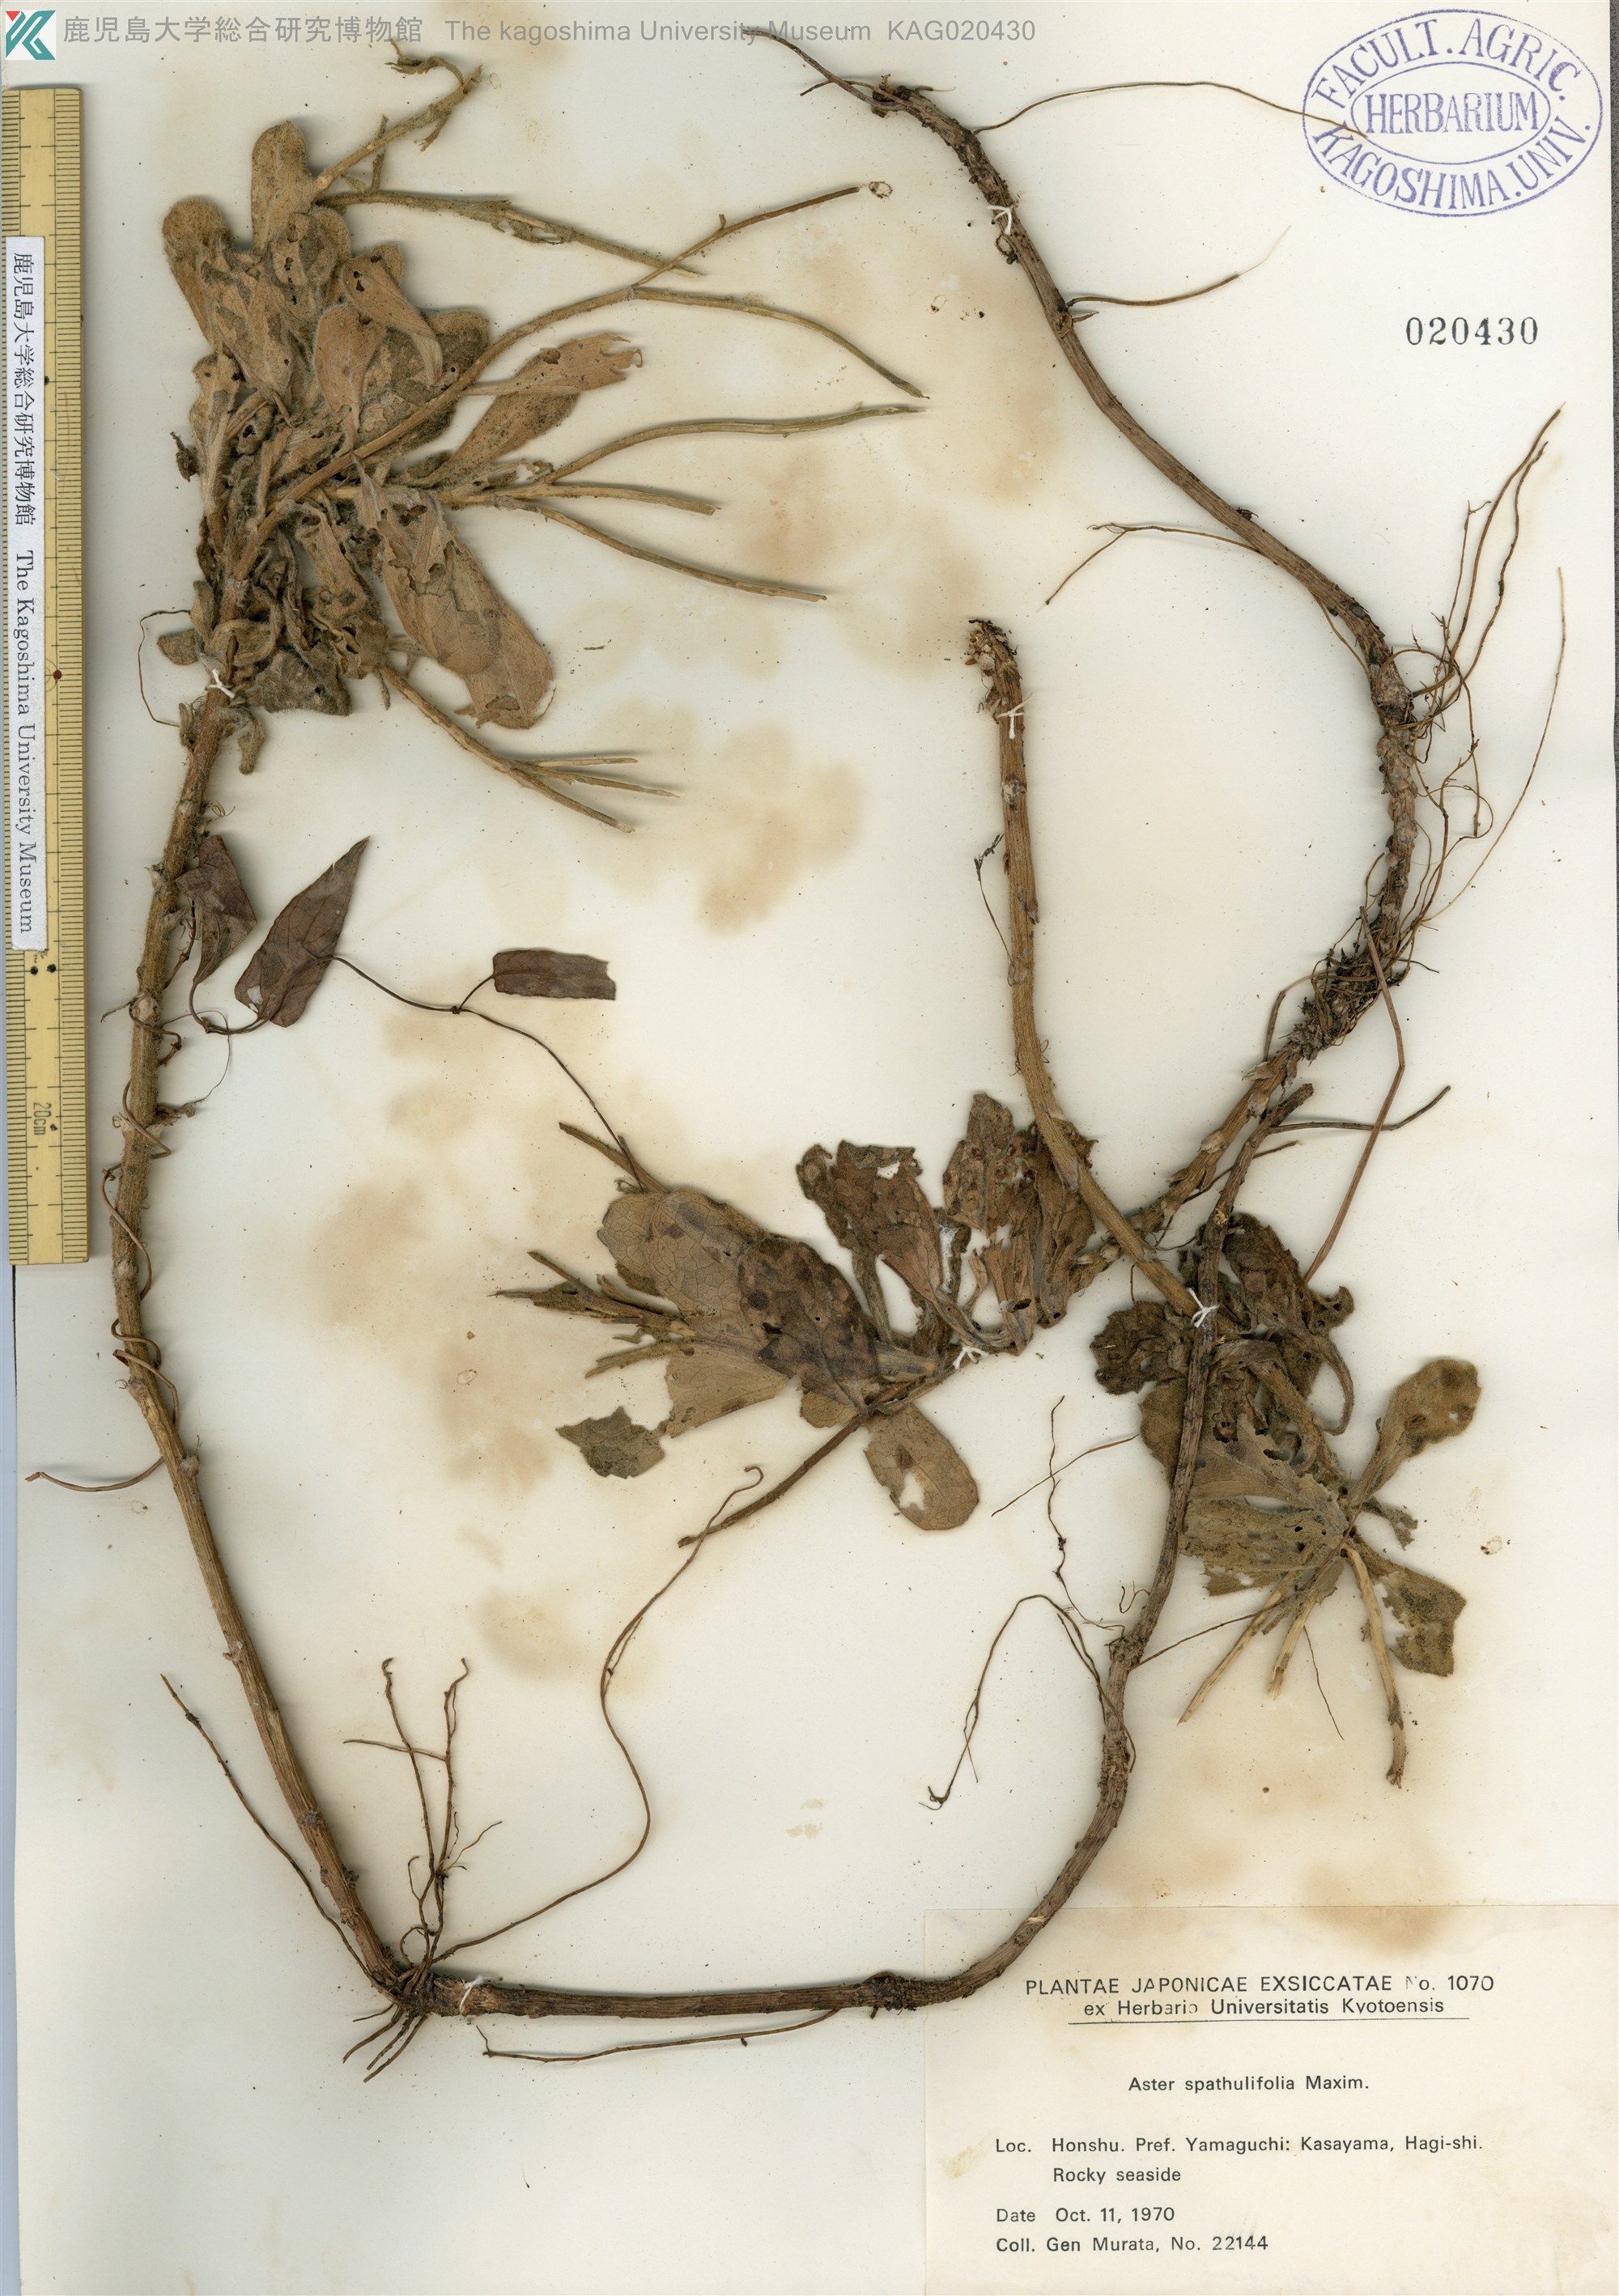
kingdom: Plantae
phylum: Tracheophyta
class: Magnoliopsida
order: Asterales
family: Asteraceae
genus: Aster
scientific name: Aster spathulifolius
